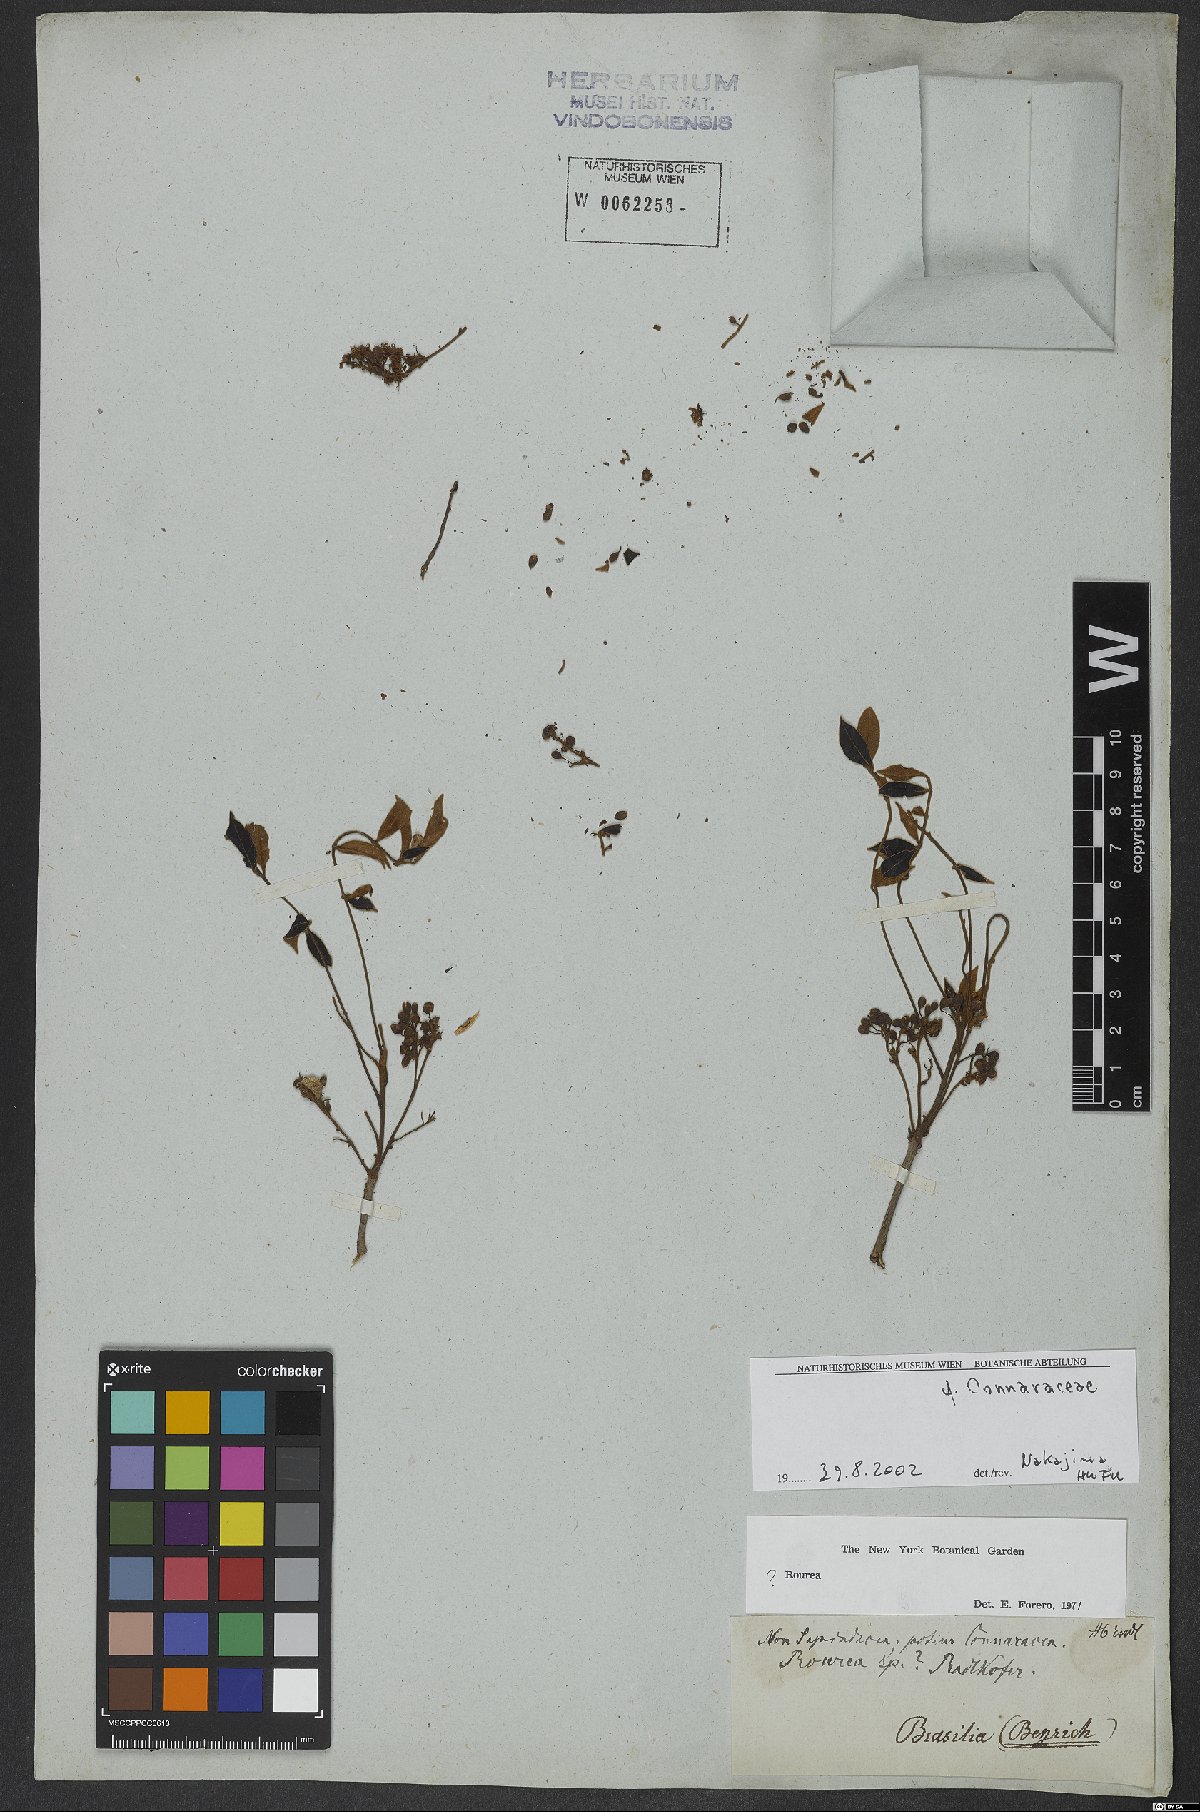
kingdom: Plantae
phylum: Tracheophyta
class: Magnoliopsida
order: Oxalidales
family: Connaraceae
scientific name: Connaraceae
